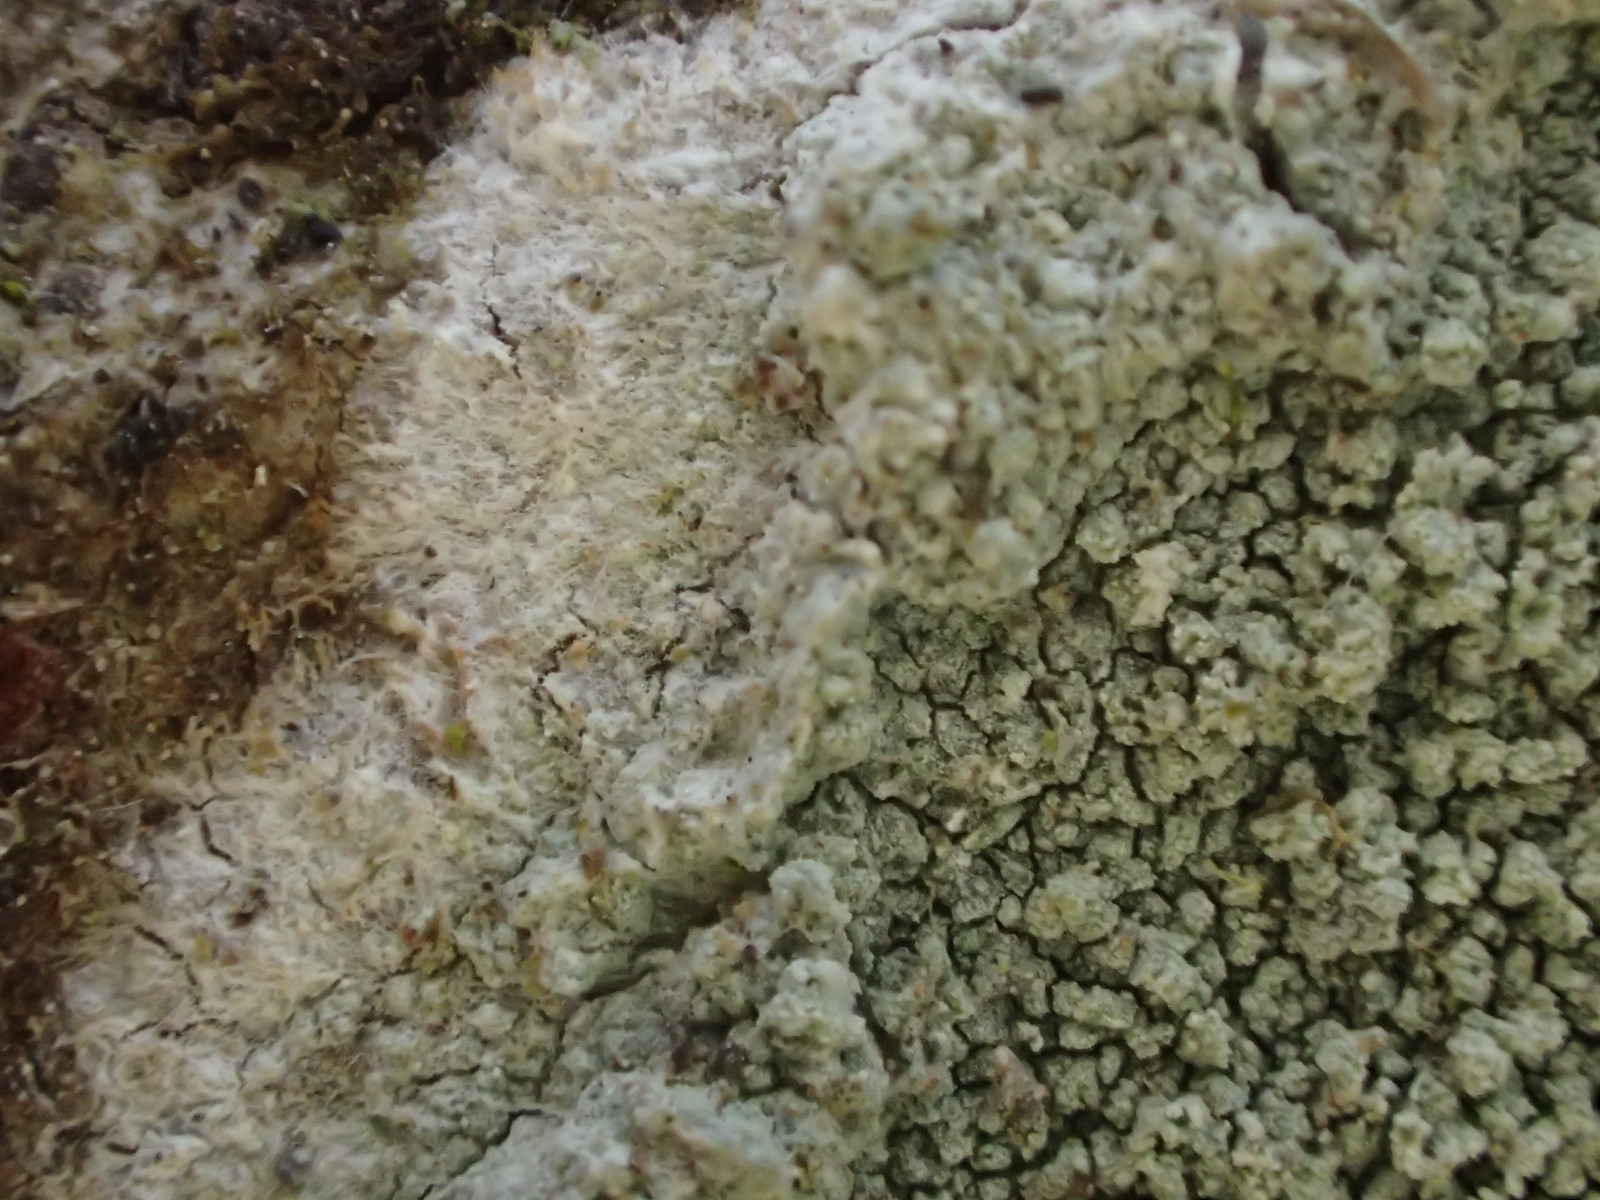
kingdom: Fungi
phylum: Ascomycota
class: Lecanoromycetes
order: Lecanorales
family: Haematommataceae
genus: Haematomma
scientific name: Haematomma ochroleucum
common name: gul trådkantlav
